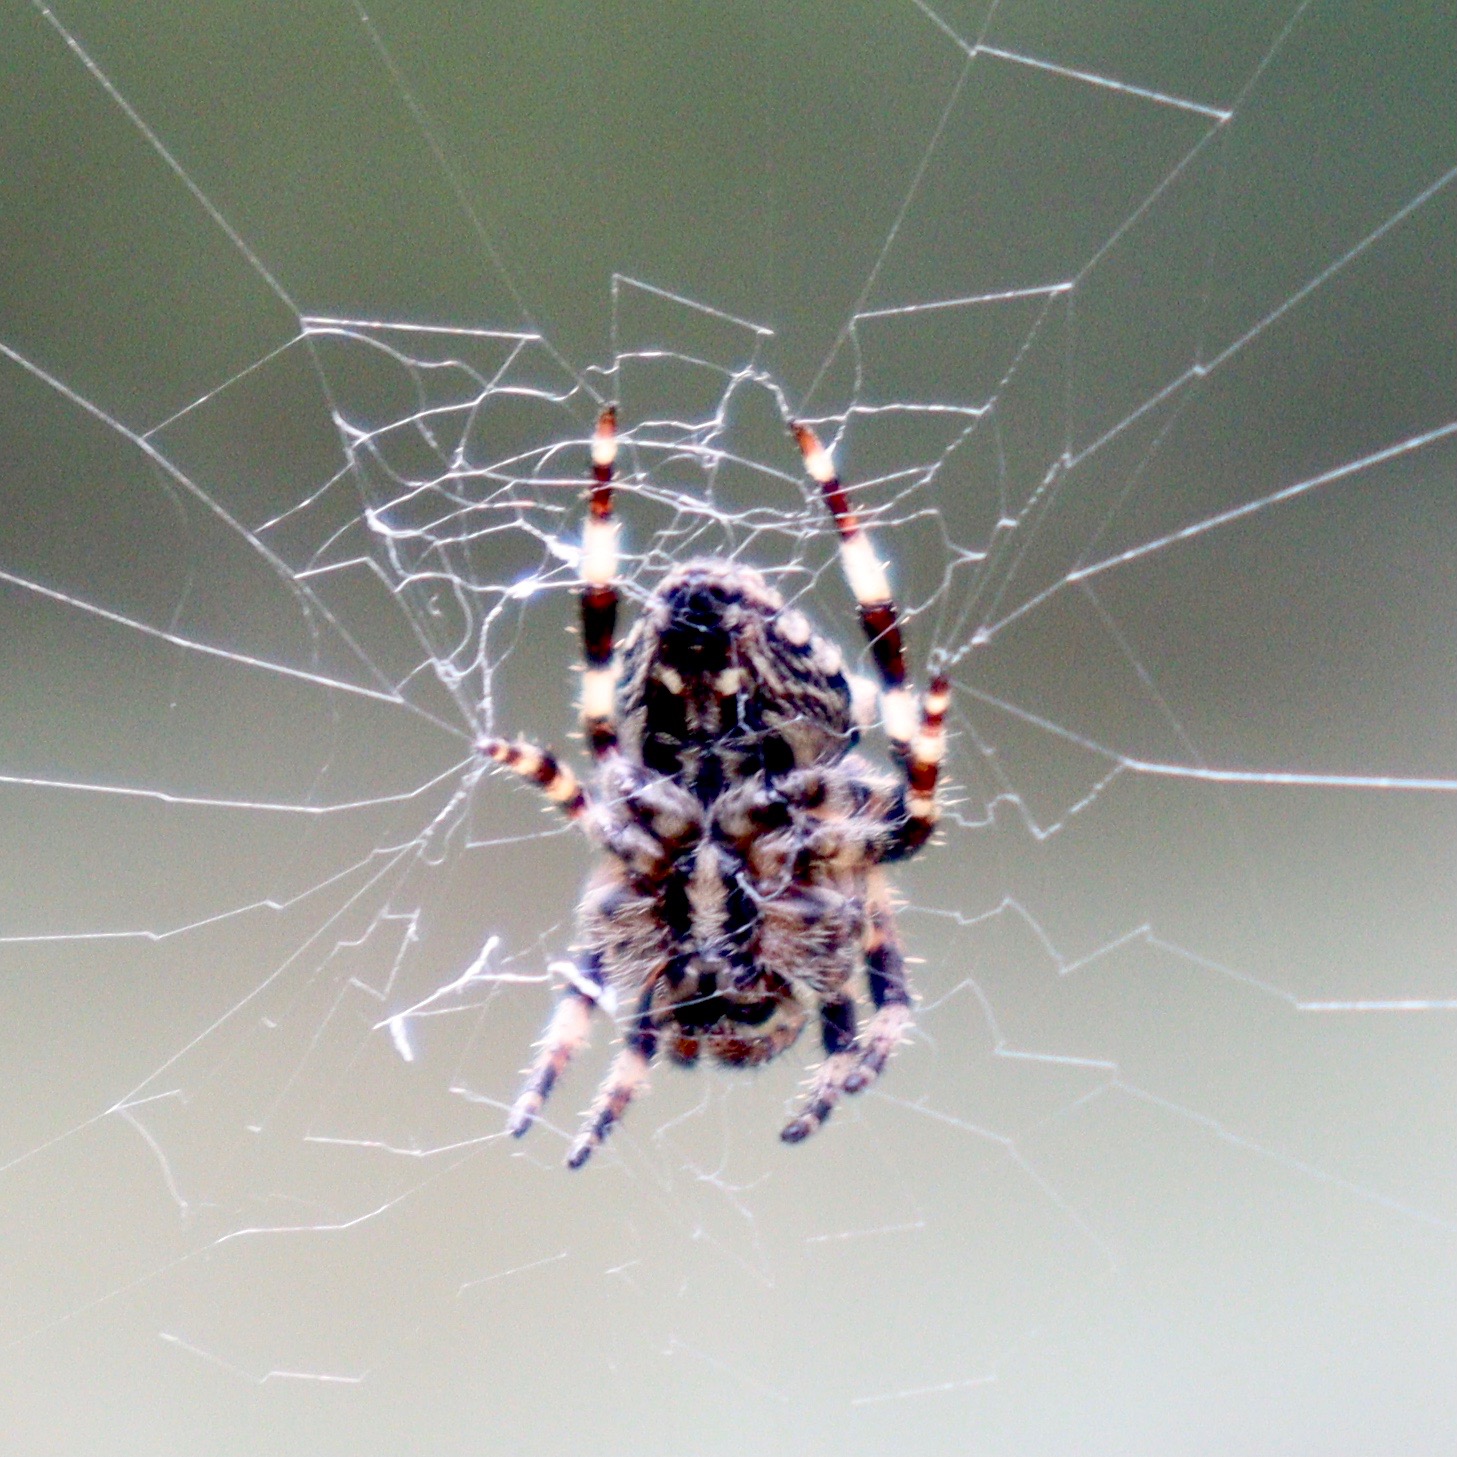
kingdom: Animalia
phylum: Arthropoda
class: Arachnida
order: Araneae
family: Araneidae
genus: Araneus
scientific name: Araneus angulatus
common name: Stor pukkelhjulspinder
